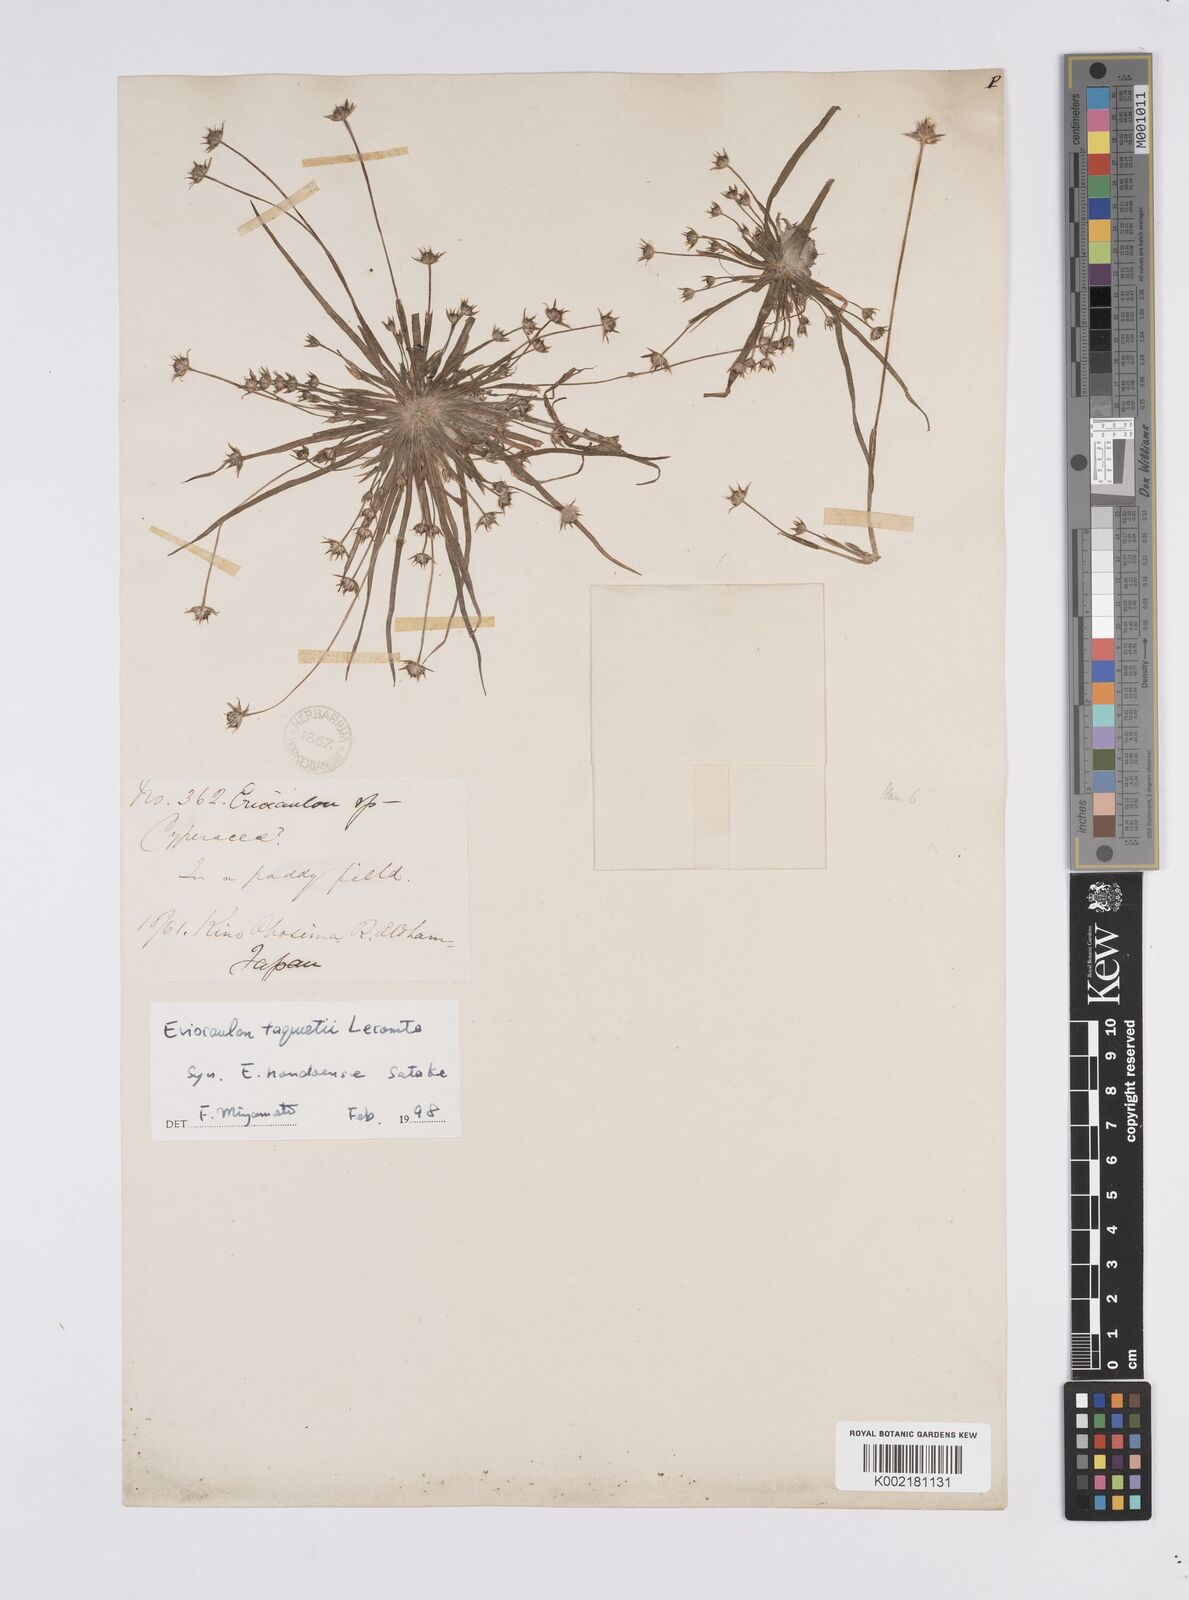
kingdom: Plantae
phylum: Tracheophyta
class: Liliopsida
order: Poales
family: Eriocaulaceae
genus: Eriocaulon
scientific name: Eriocaulon taquetii
